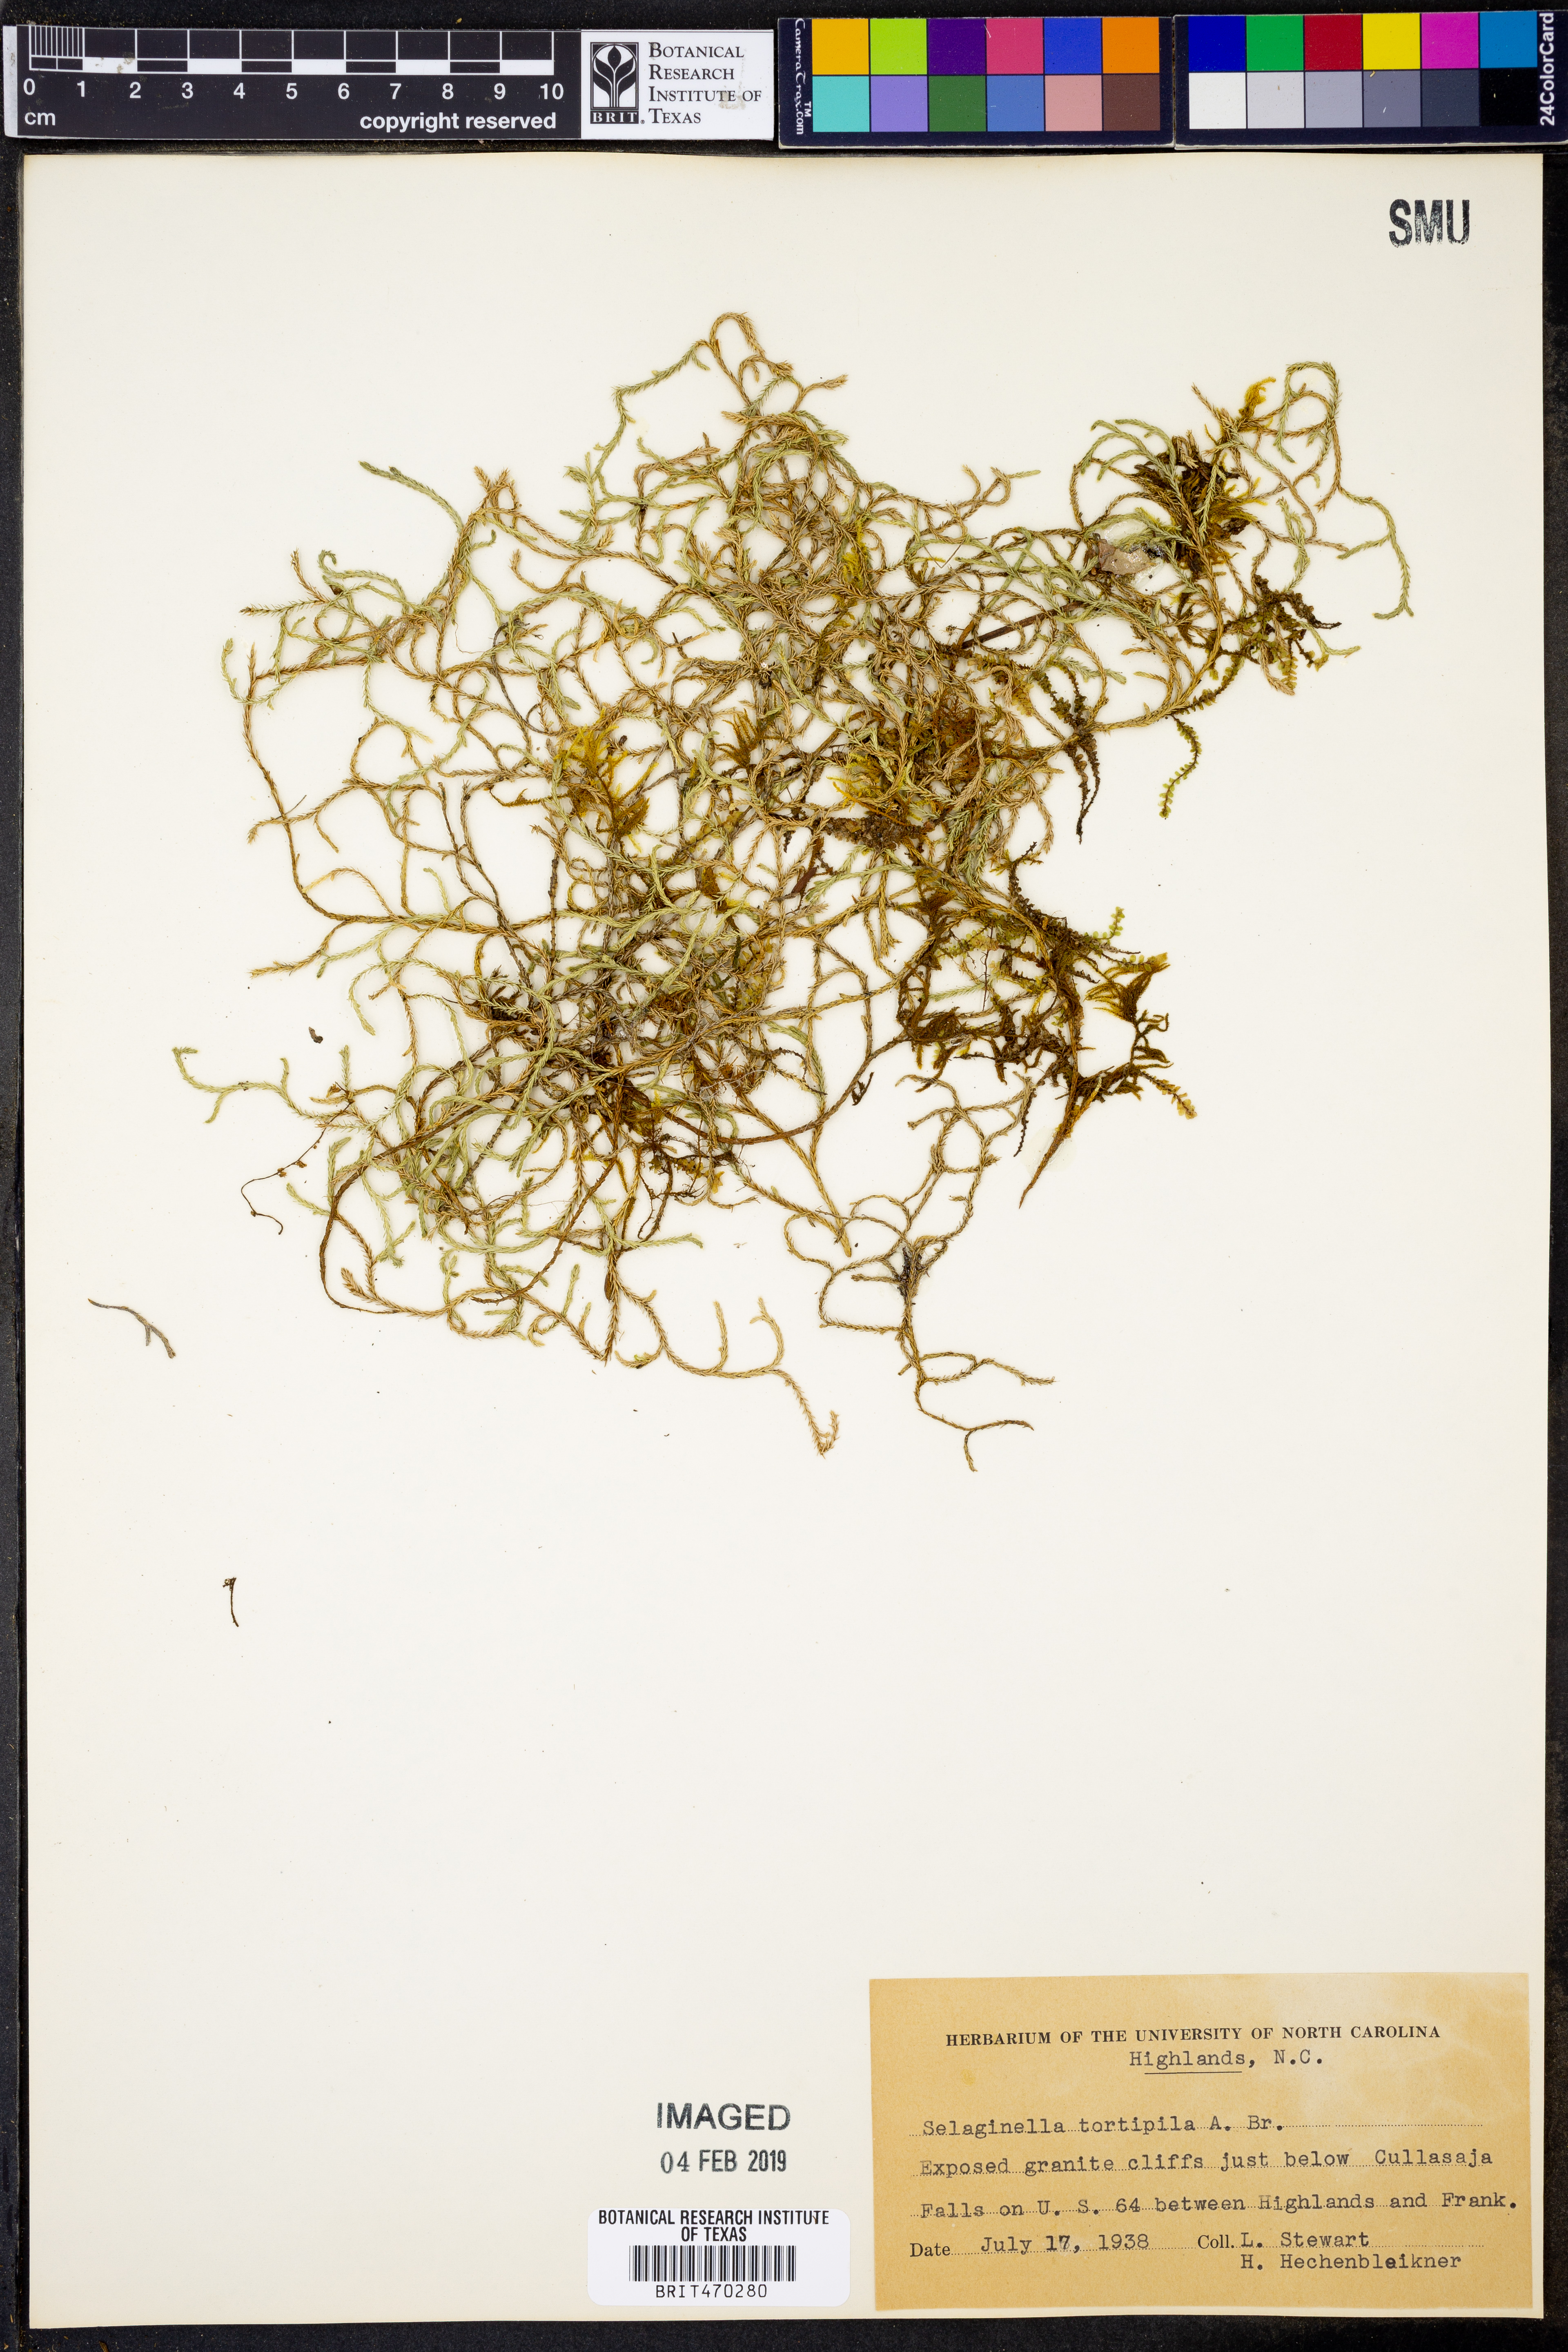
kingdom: Plantae
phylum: Tracheophyta
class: Lycopodiopsida
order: Selaginellales
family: Selaginellaceae
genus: Selaginella
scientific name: Selaginella tortipila
